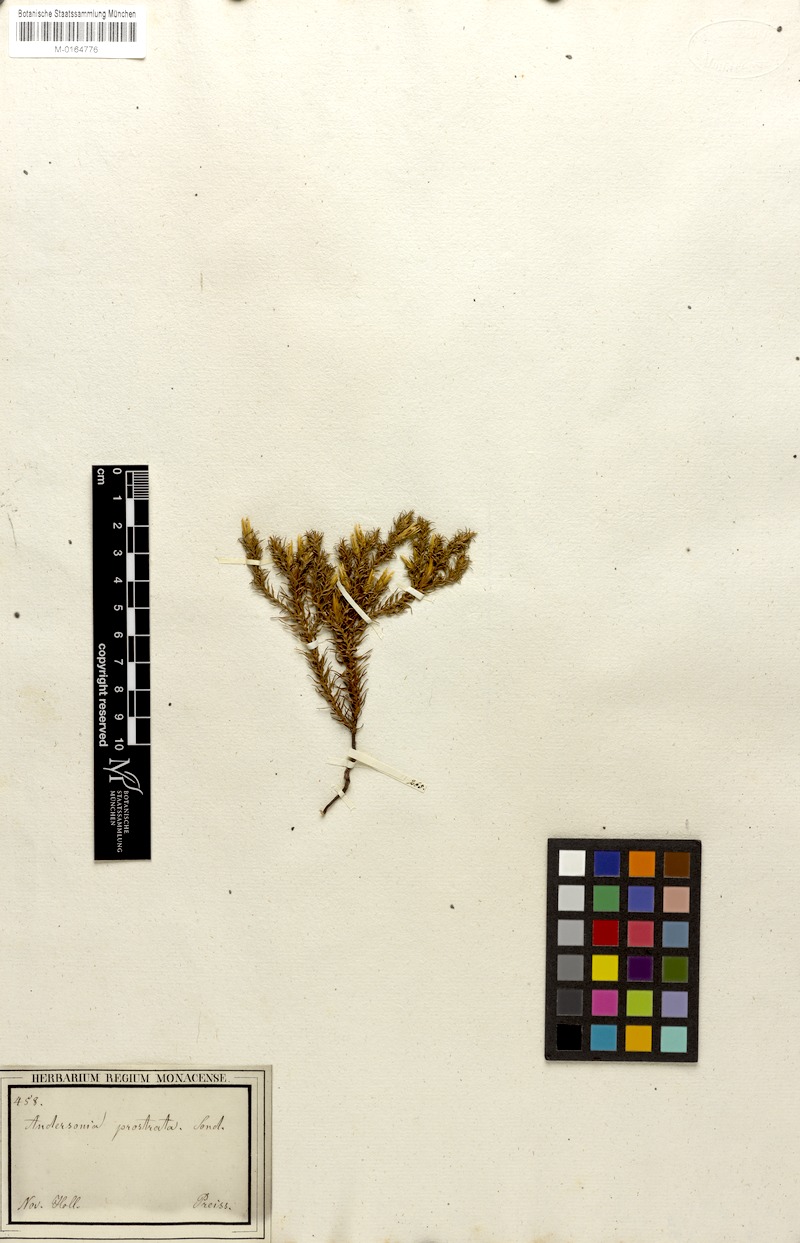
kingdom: Plantae
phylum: Tracheophyta
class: Magnoliopsida
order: Ericales
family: Ericaceae
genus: Andersonia
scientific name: Andersonia caerulea
